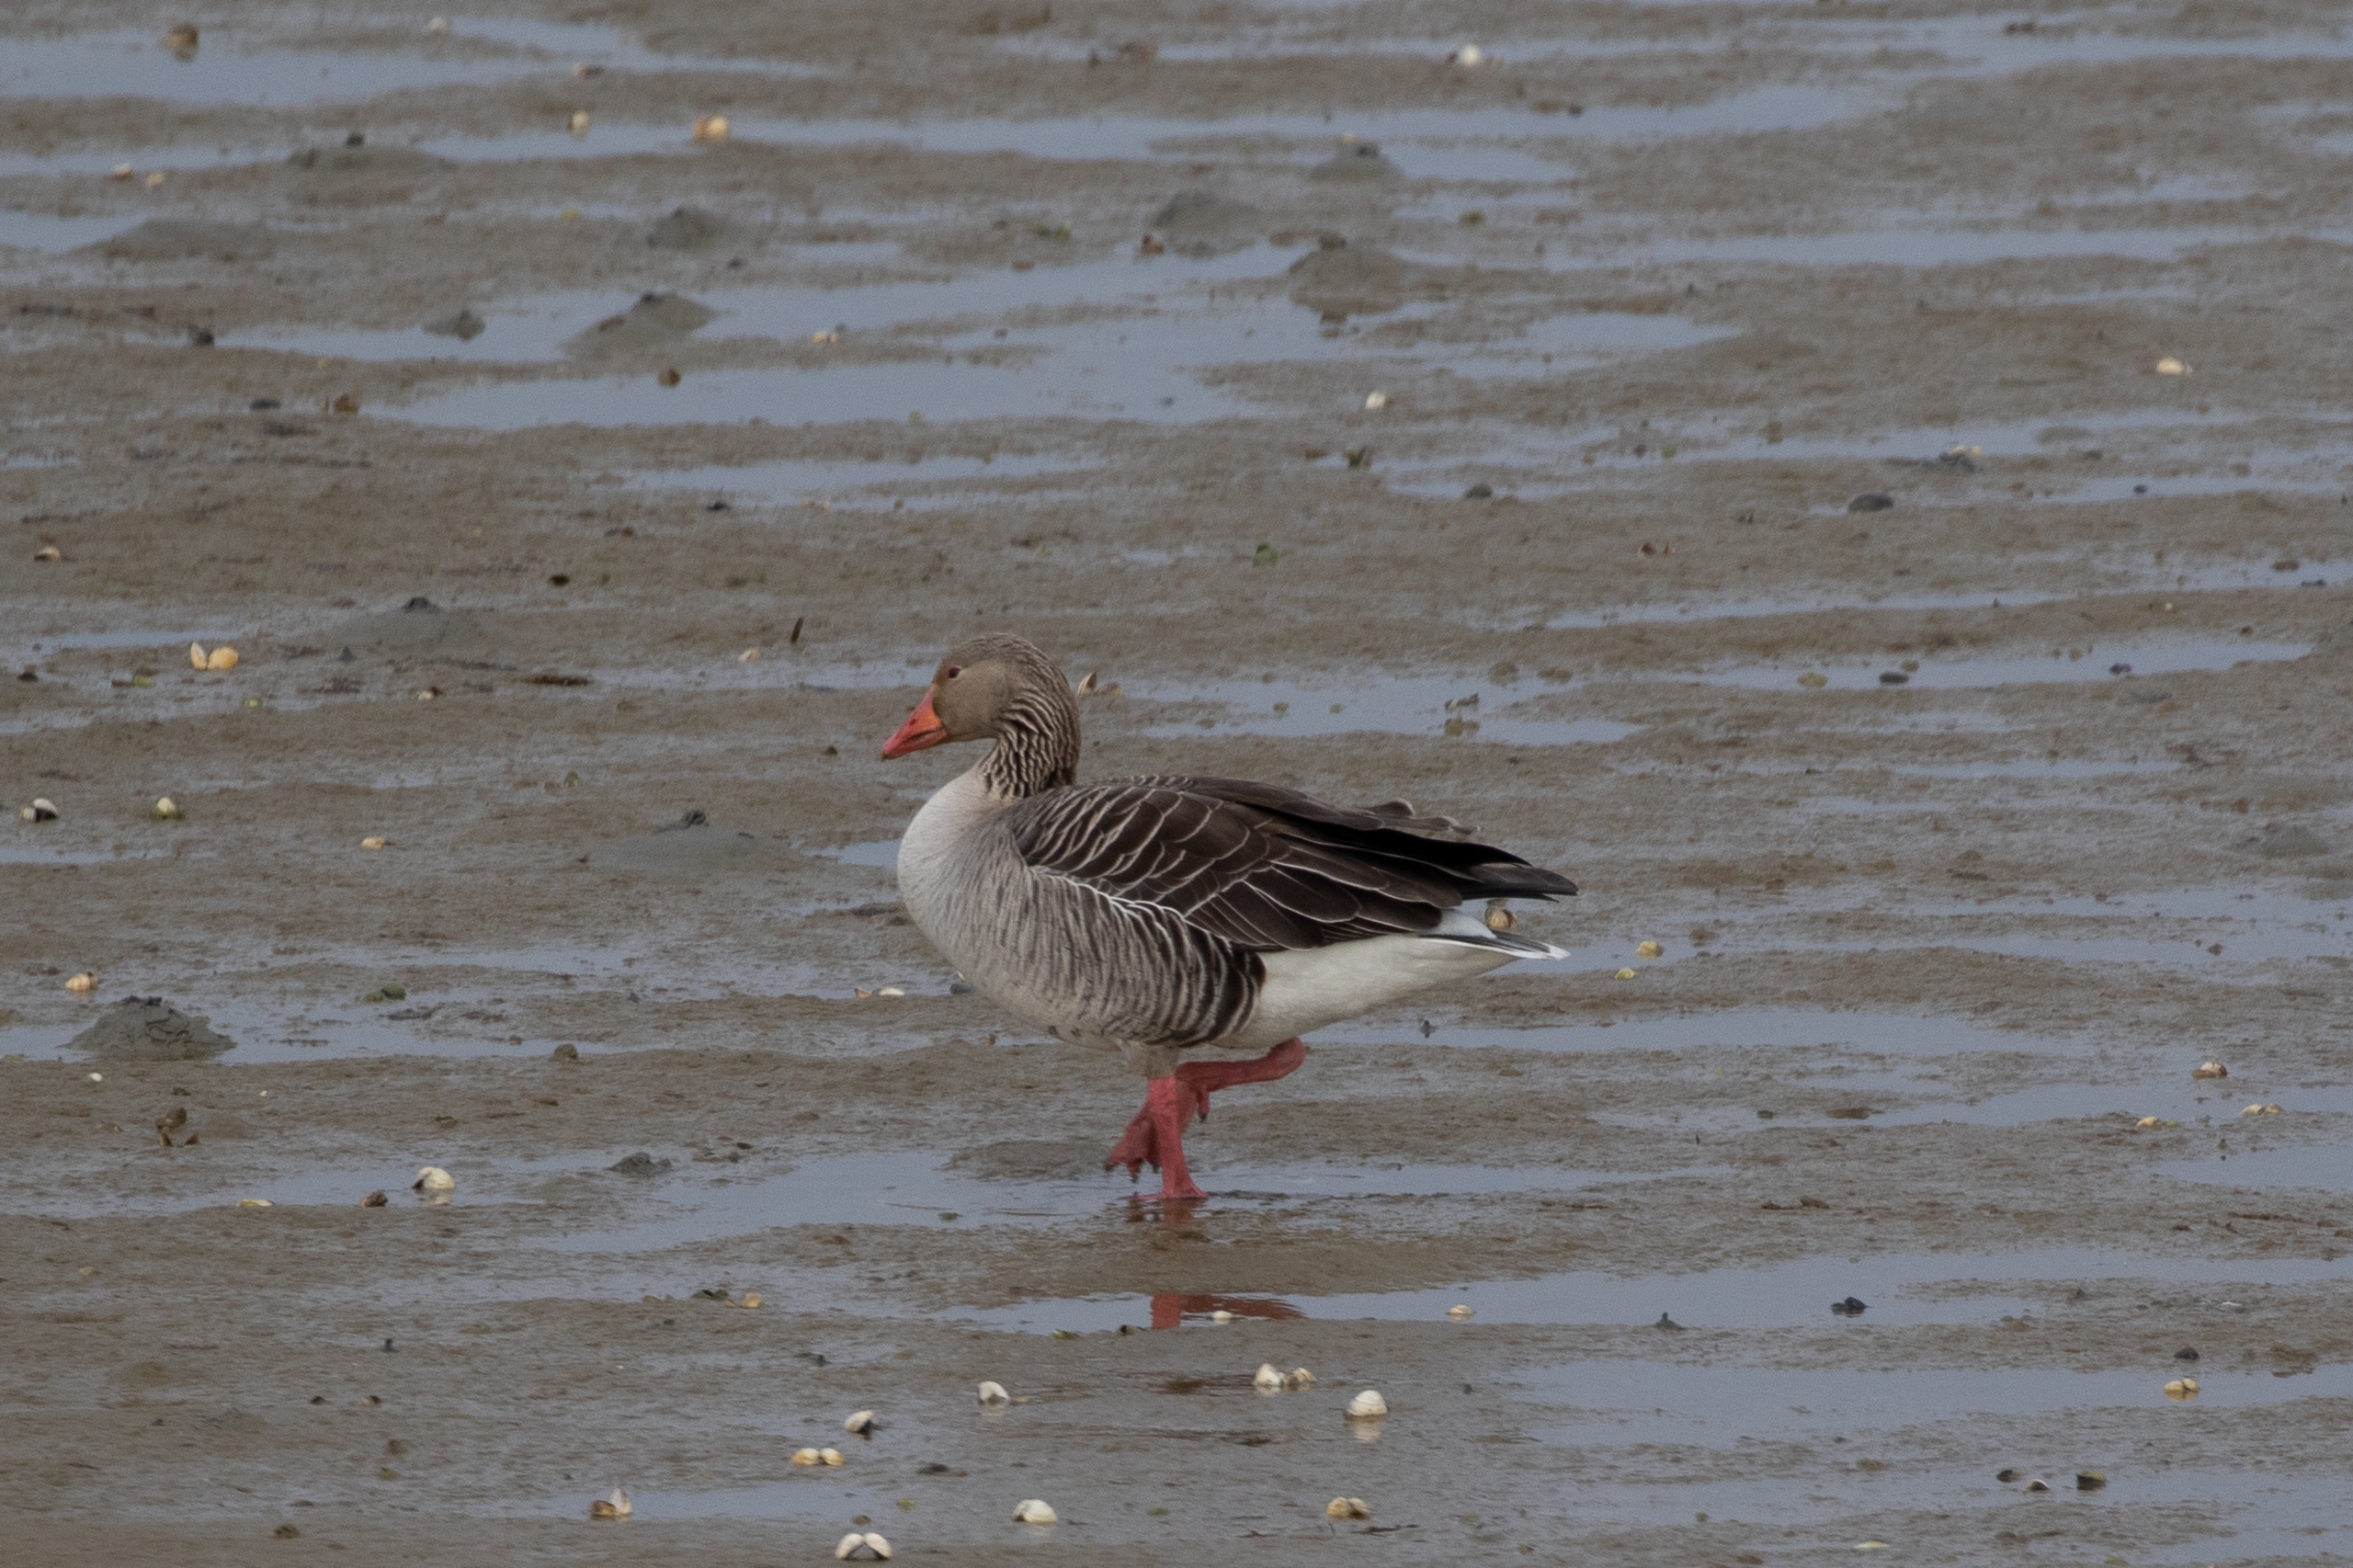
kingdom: Animalia
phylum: Chordata
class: Aves
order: Anseriformes
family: Anatidae
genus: Anser
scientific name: Anser anser
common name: Grågås
